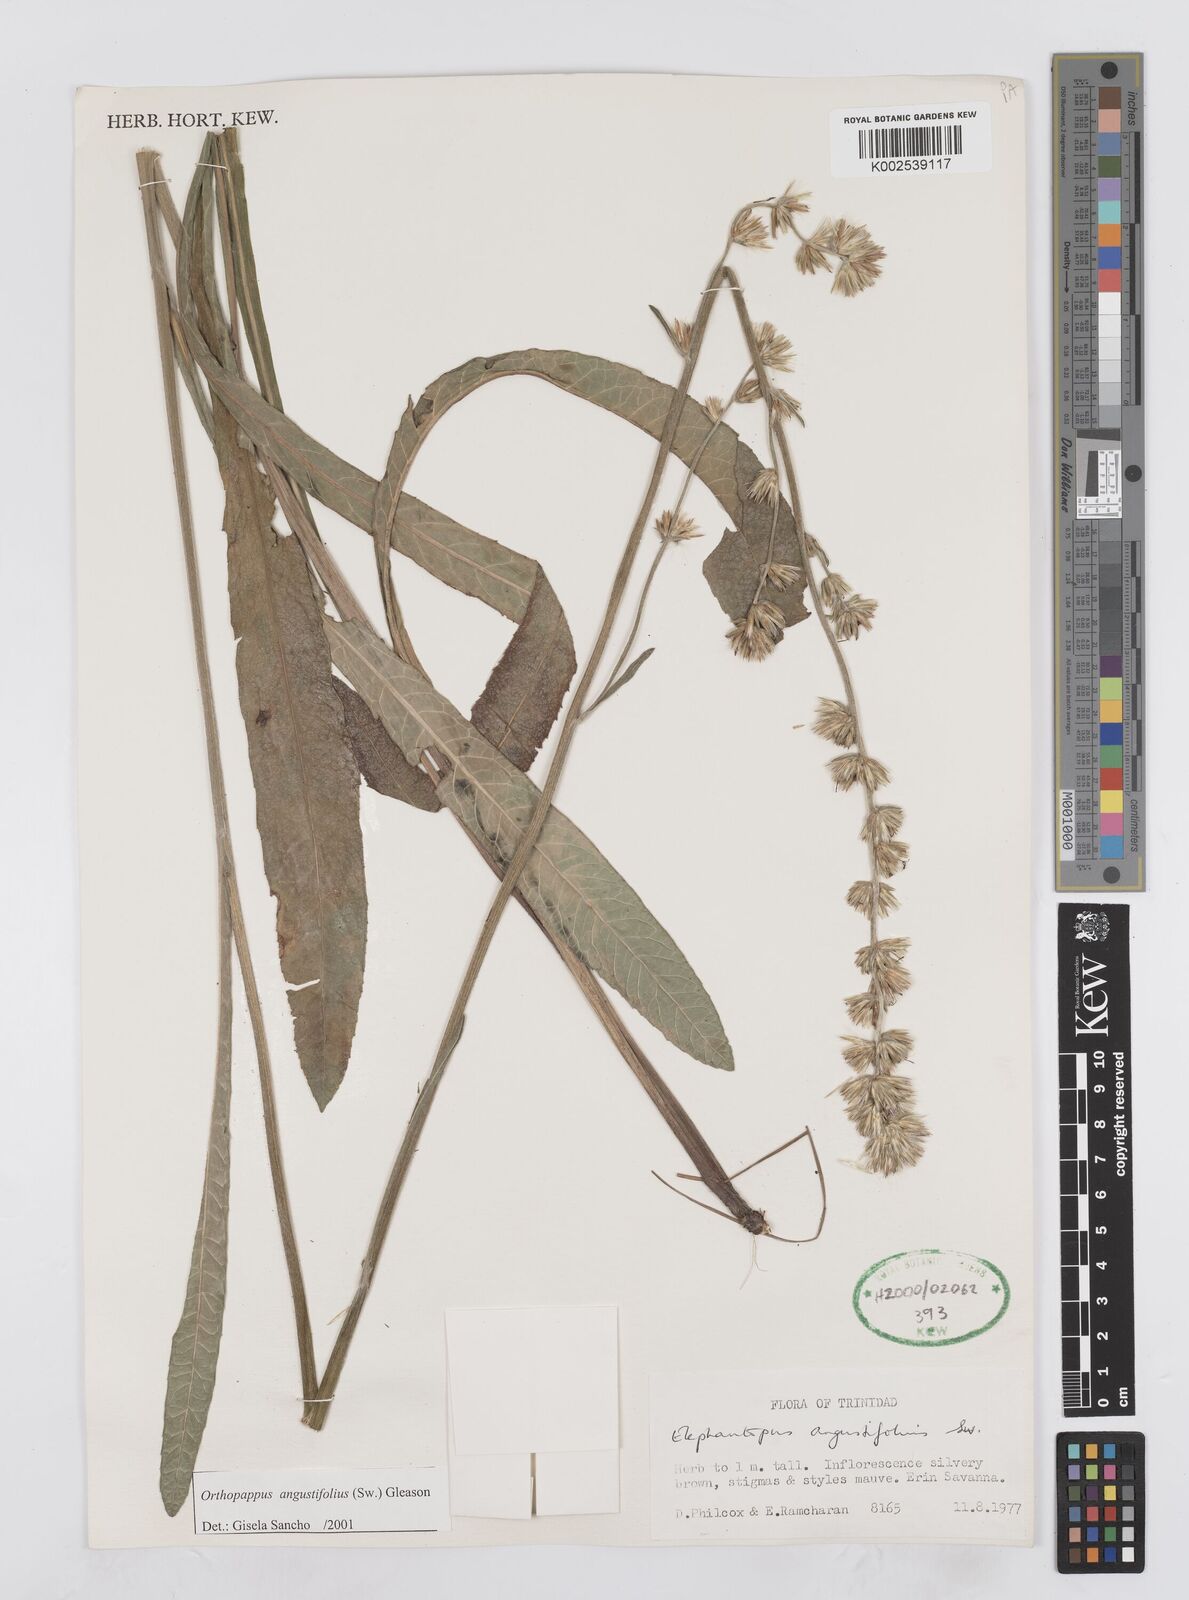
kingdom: Plantae
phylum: Tracheophyta
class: Magnoliopsida
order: Asterales
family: Asteraceae
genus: Orthopappus
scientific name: Orthopappus angustifolius
